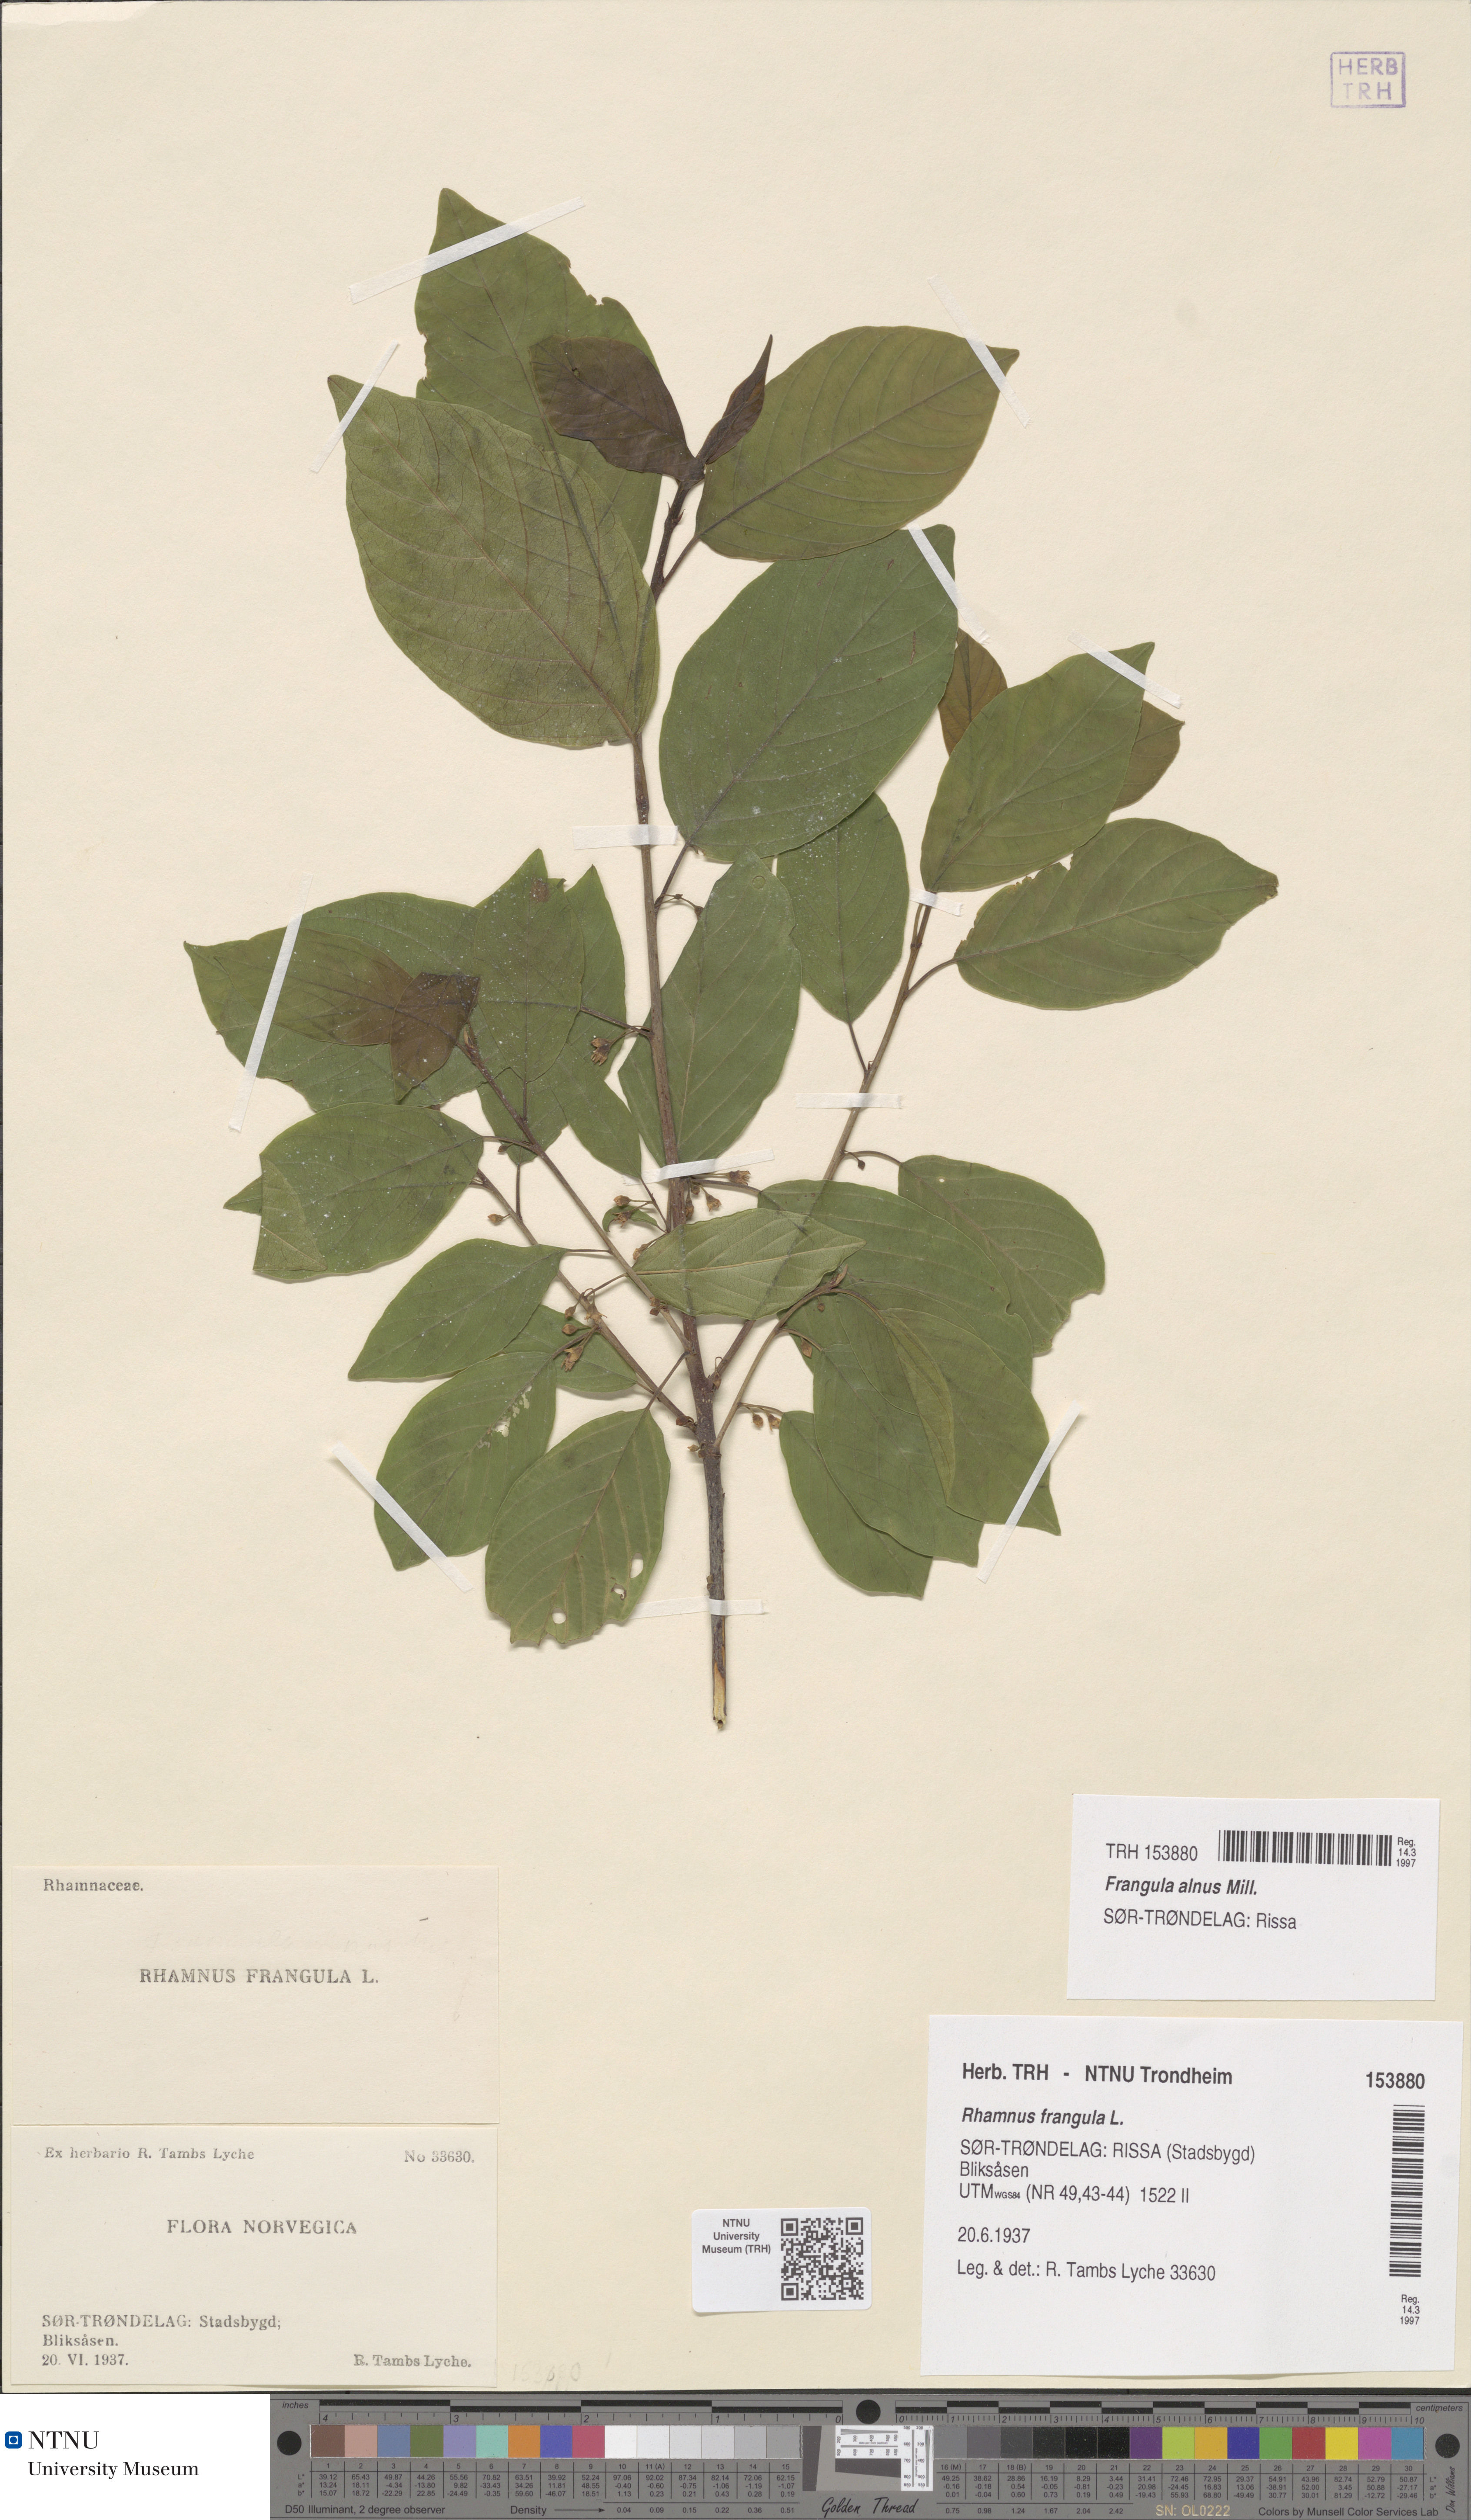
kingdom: Plantae
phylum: Tracheophyta
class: Magnoliopsida
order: Rosales
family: Rhamnaceae
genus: Frangula
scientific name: Frangula alnus
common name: Alder buckthorn
